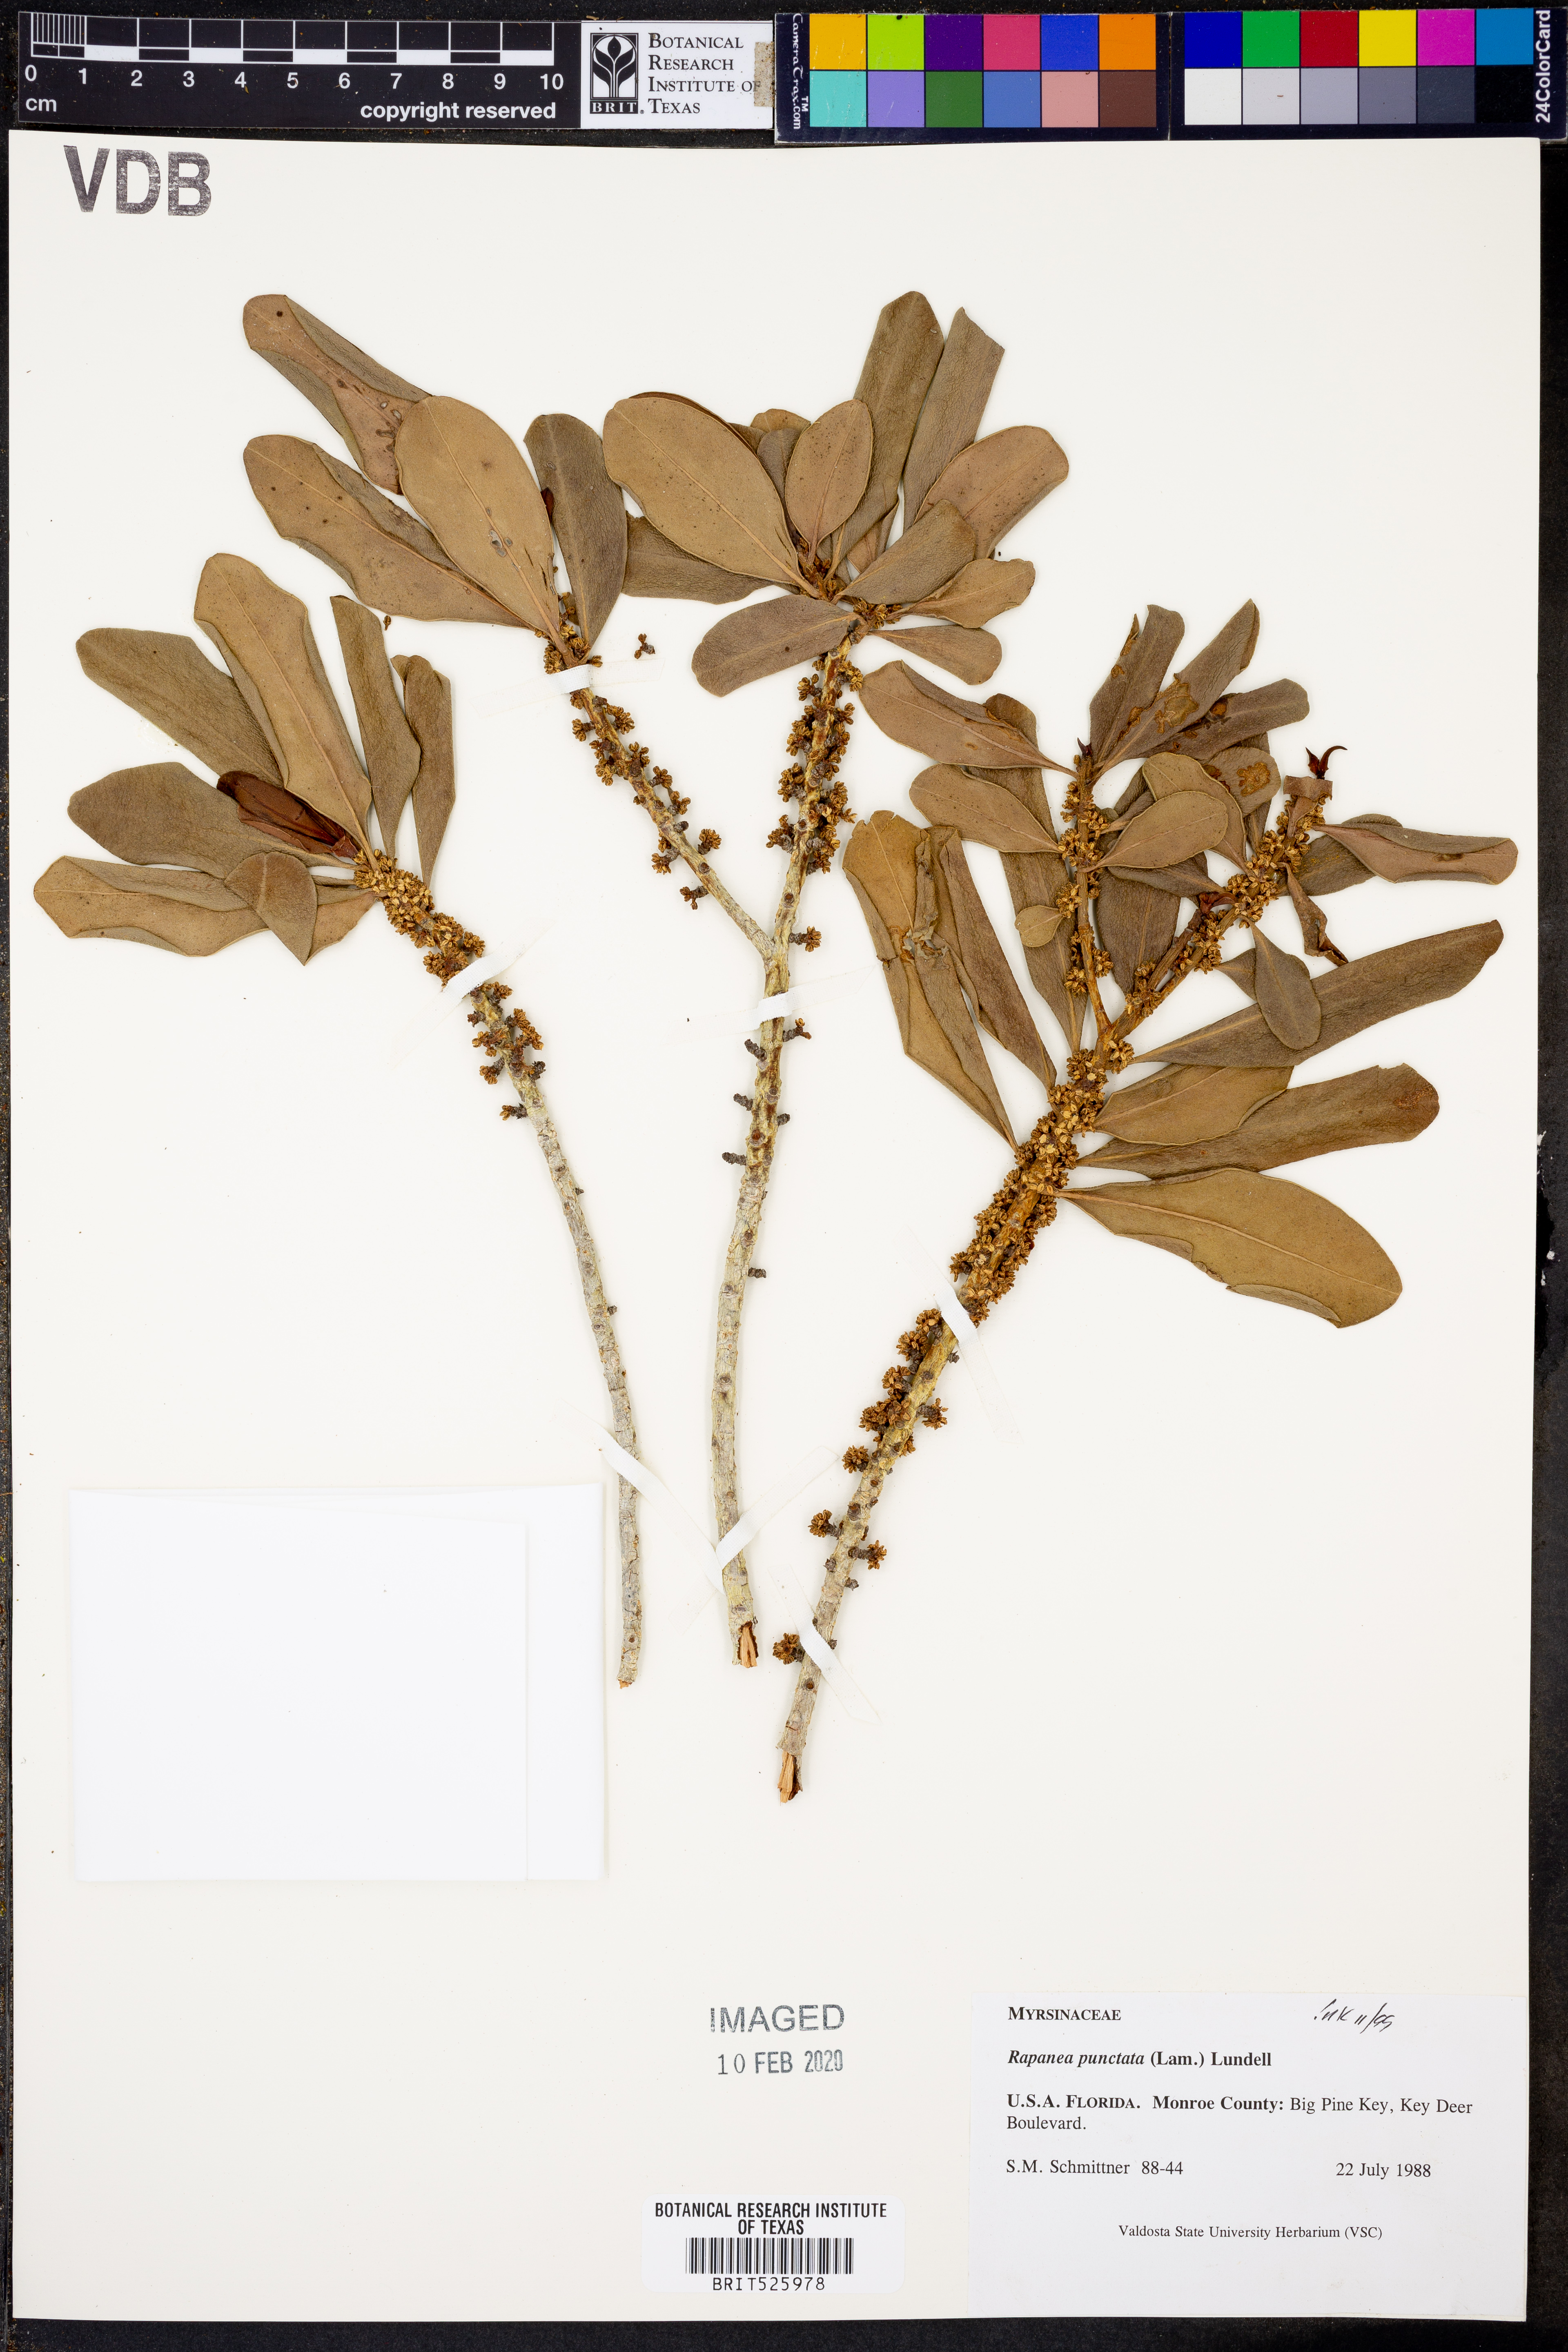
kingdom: Plantae
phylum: Tracheophyta
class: Magnoliopsida
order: Ericales
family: Primulaceae
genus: Myrsine
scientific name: Myrsine floridana
